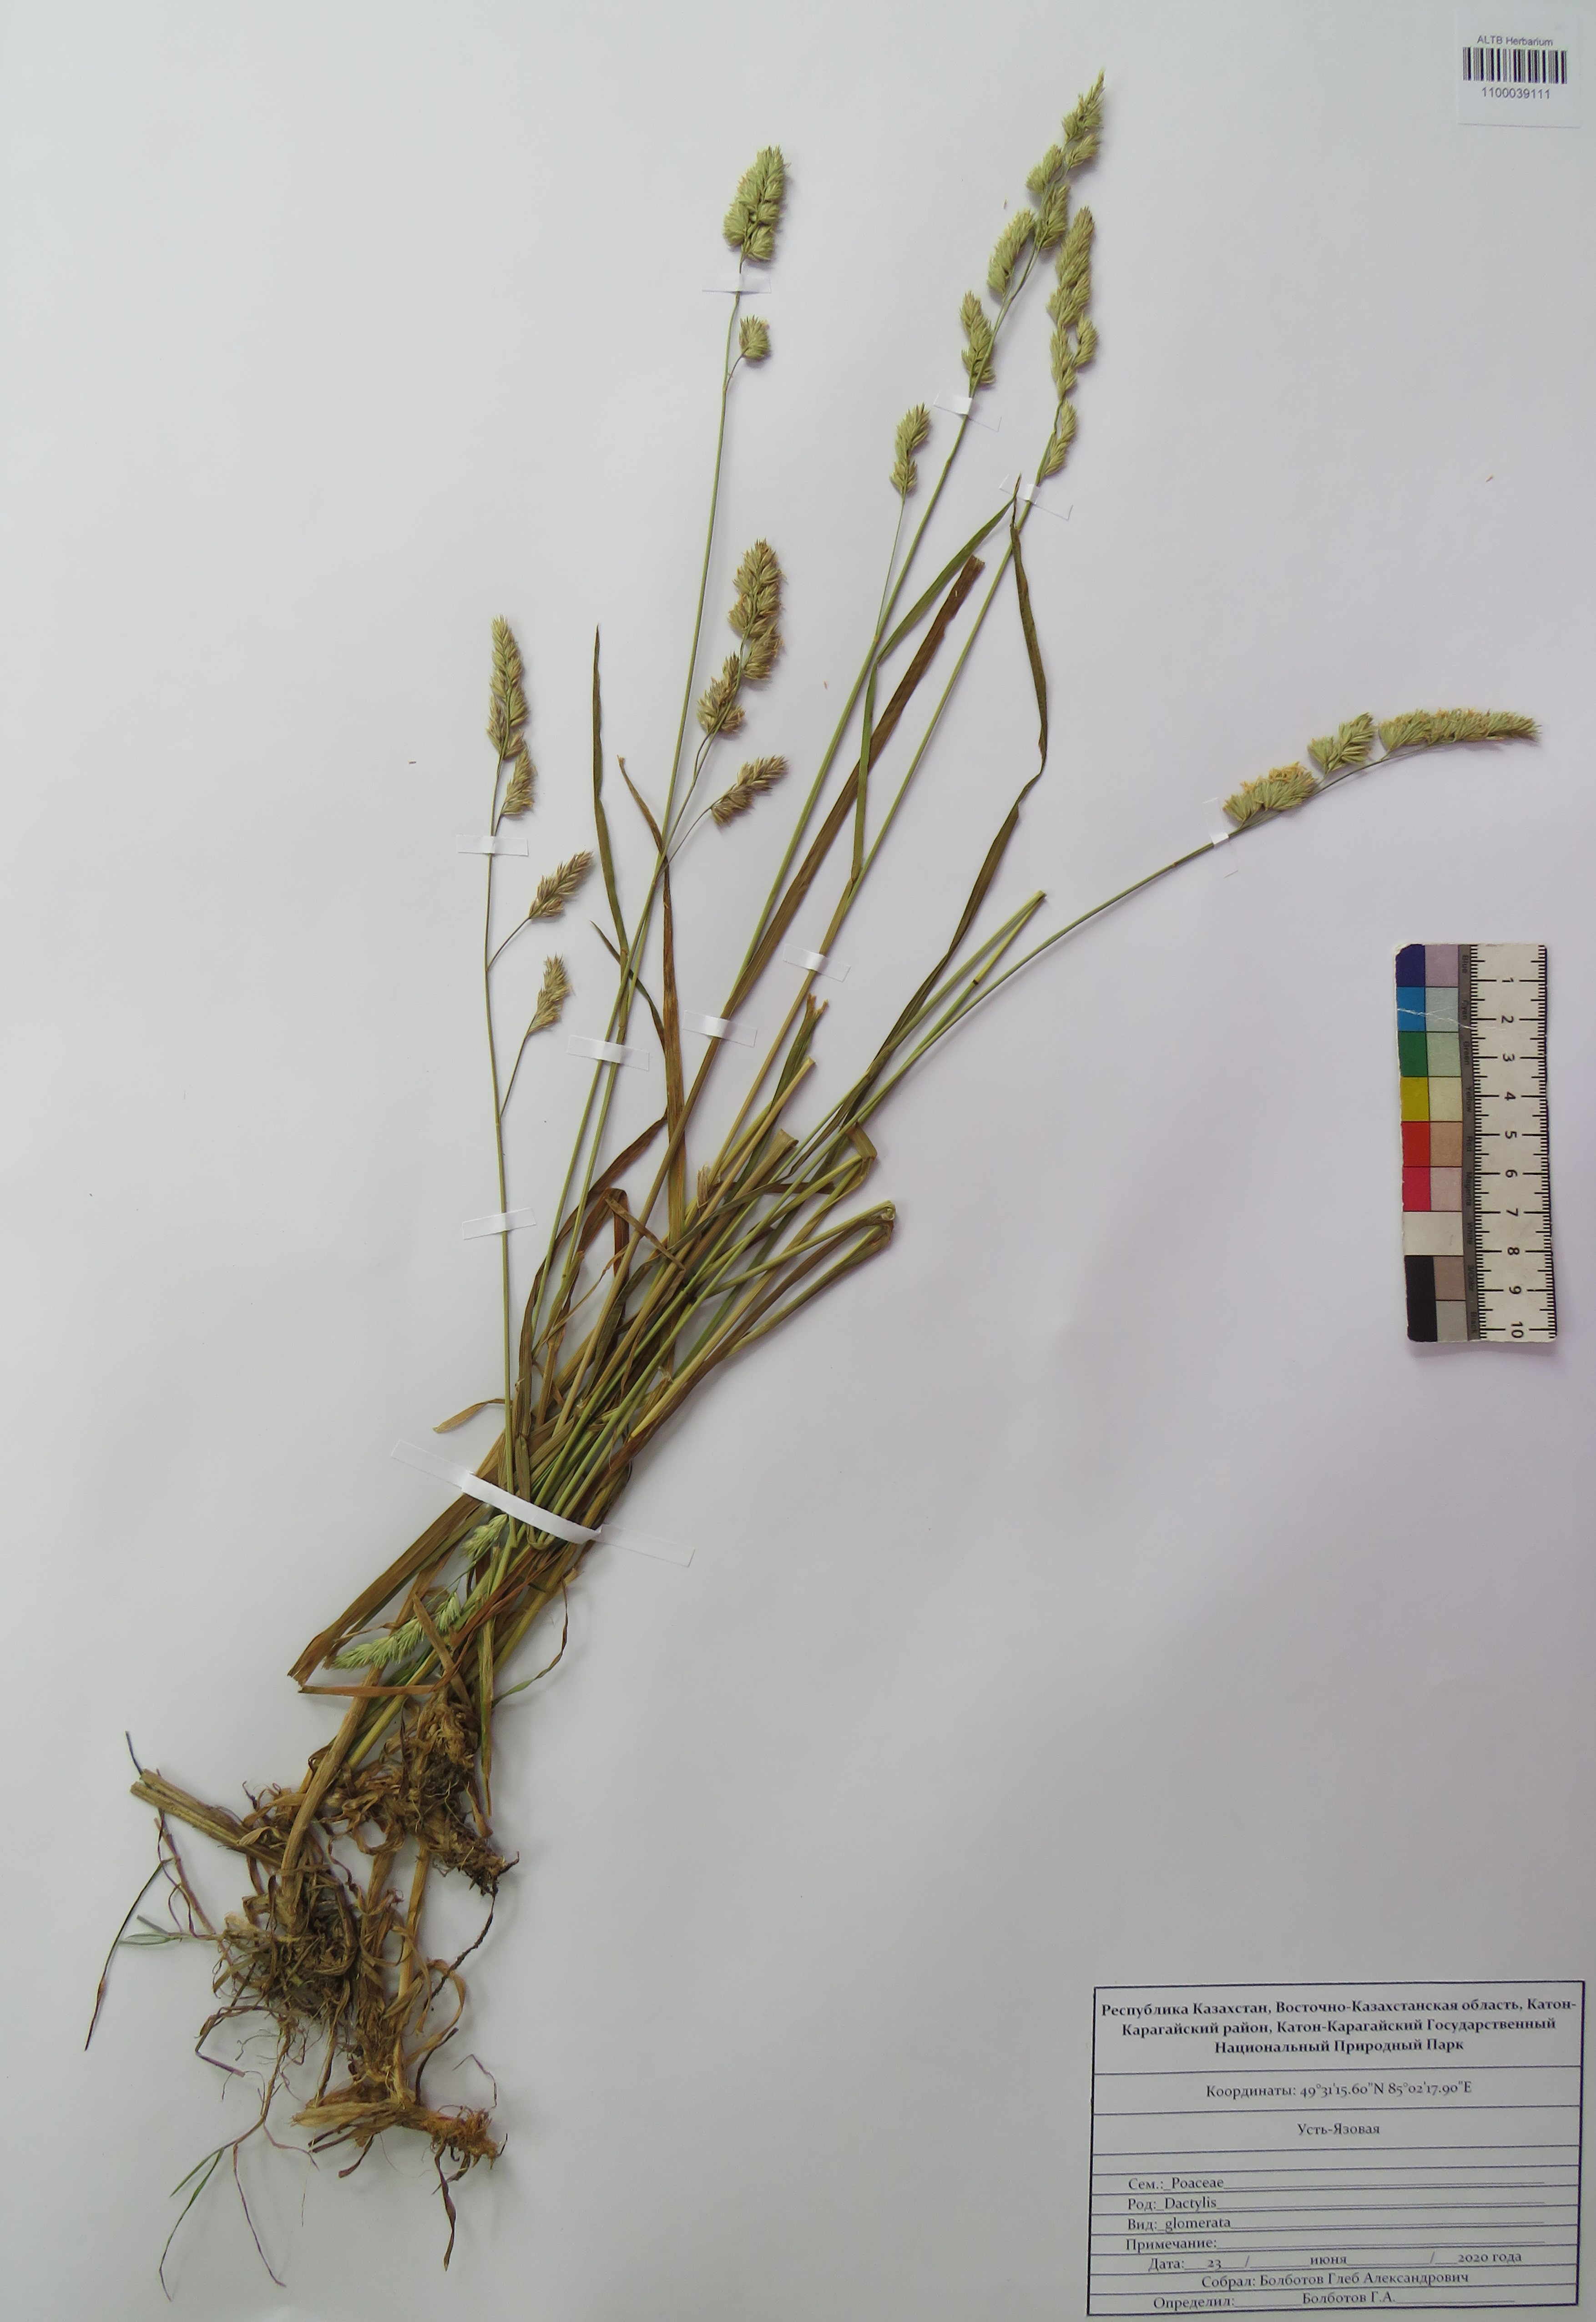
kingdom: Plantae
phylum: Tracheophyta
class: Liliopsida
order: Poales
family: Poaceae
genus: Dactylis
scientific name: Dactylis glomerata
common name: Orchardgrass
